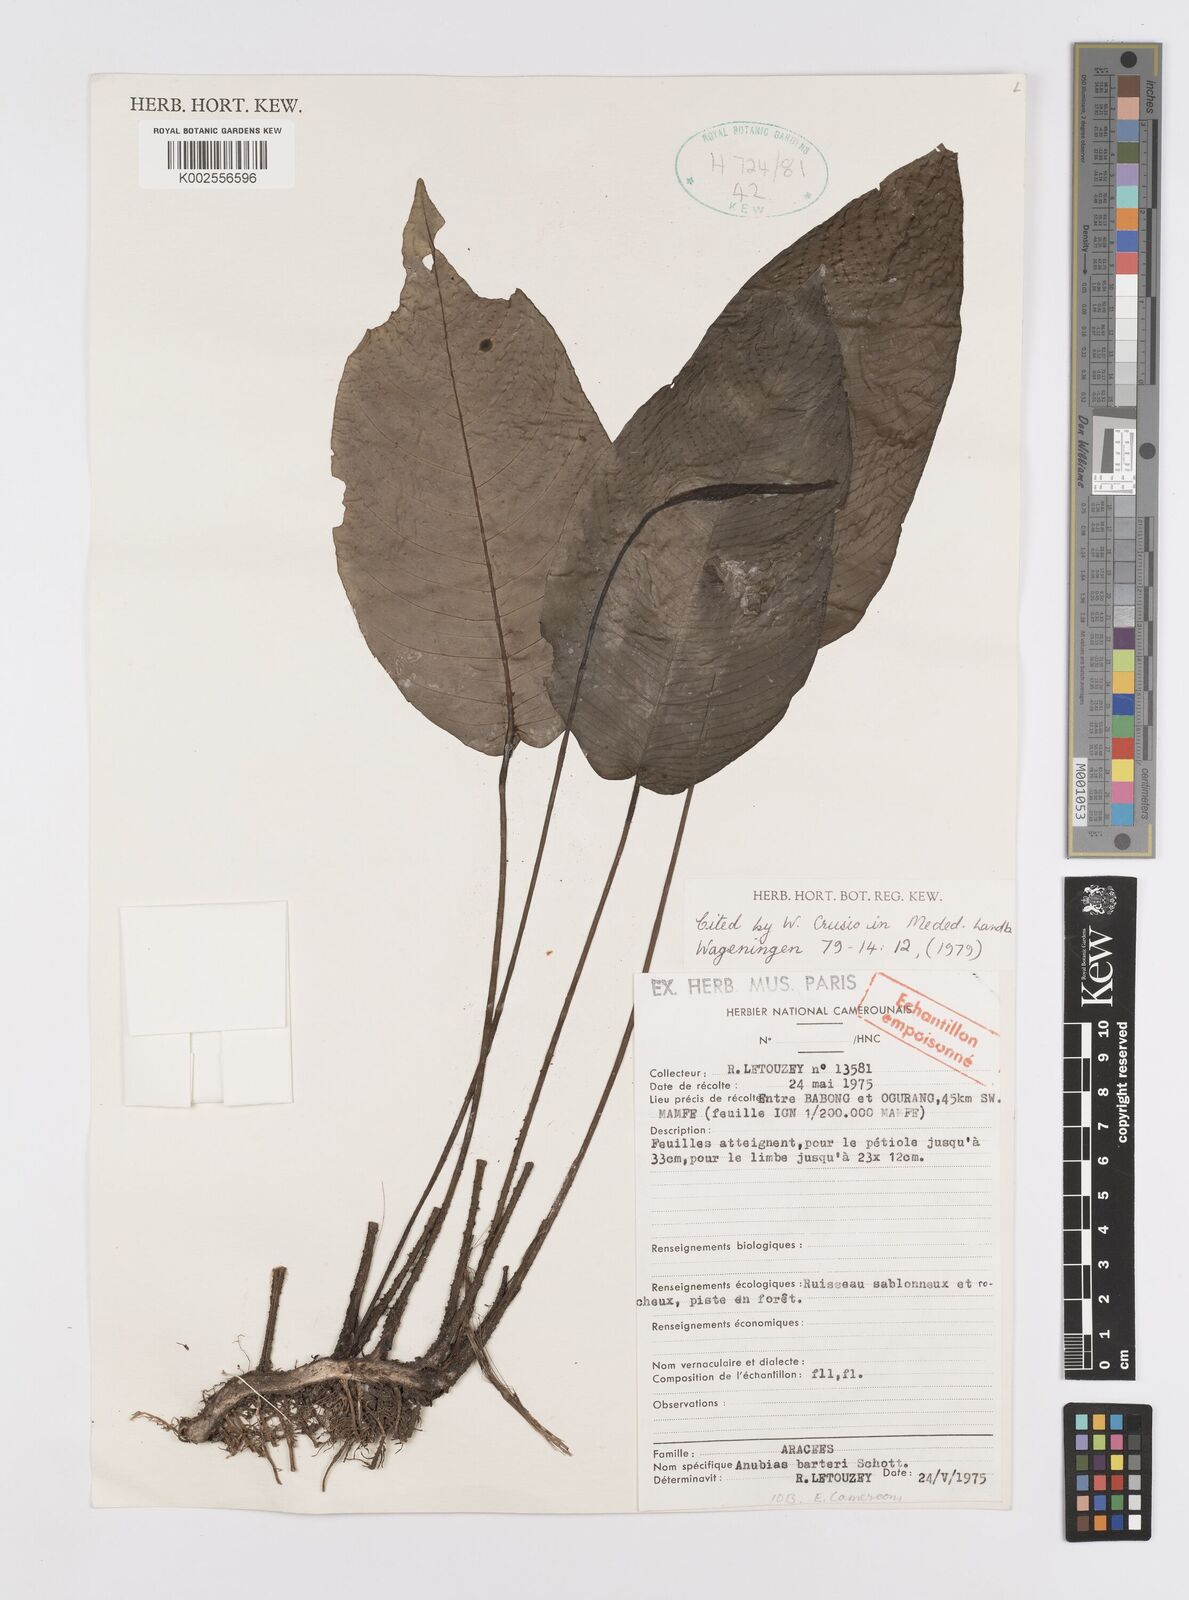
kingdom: Plantae
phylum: Tracheophyta
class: Liliopsida
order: Alismatales
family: Araceae
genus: Anubias
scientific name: Anubias barteri
